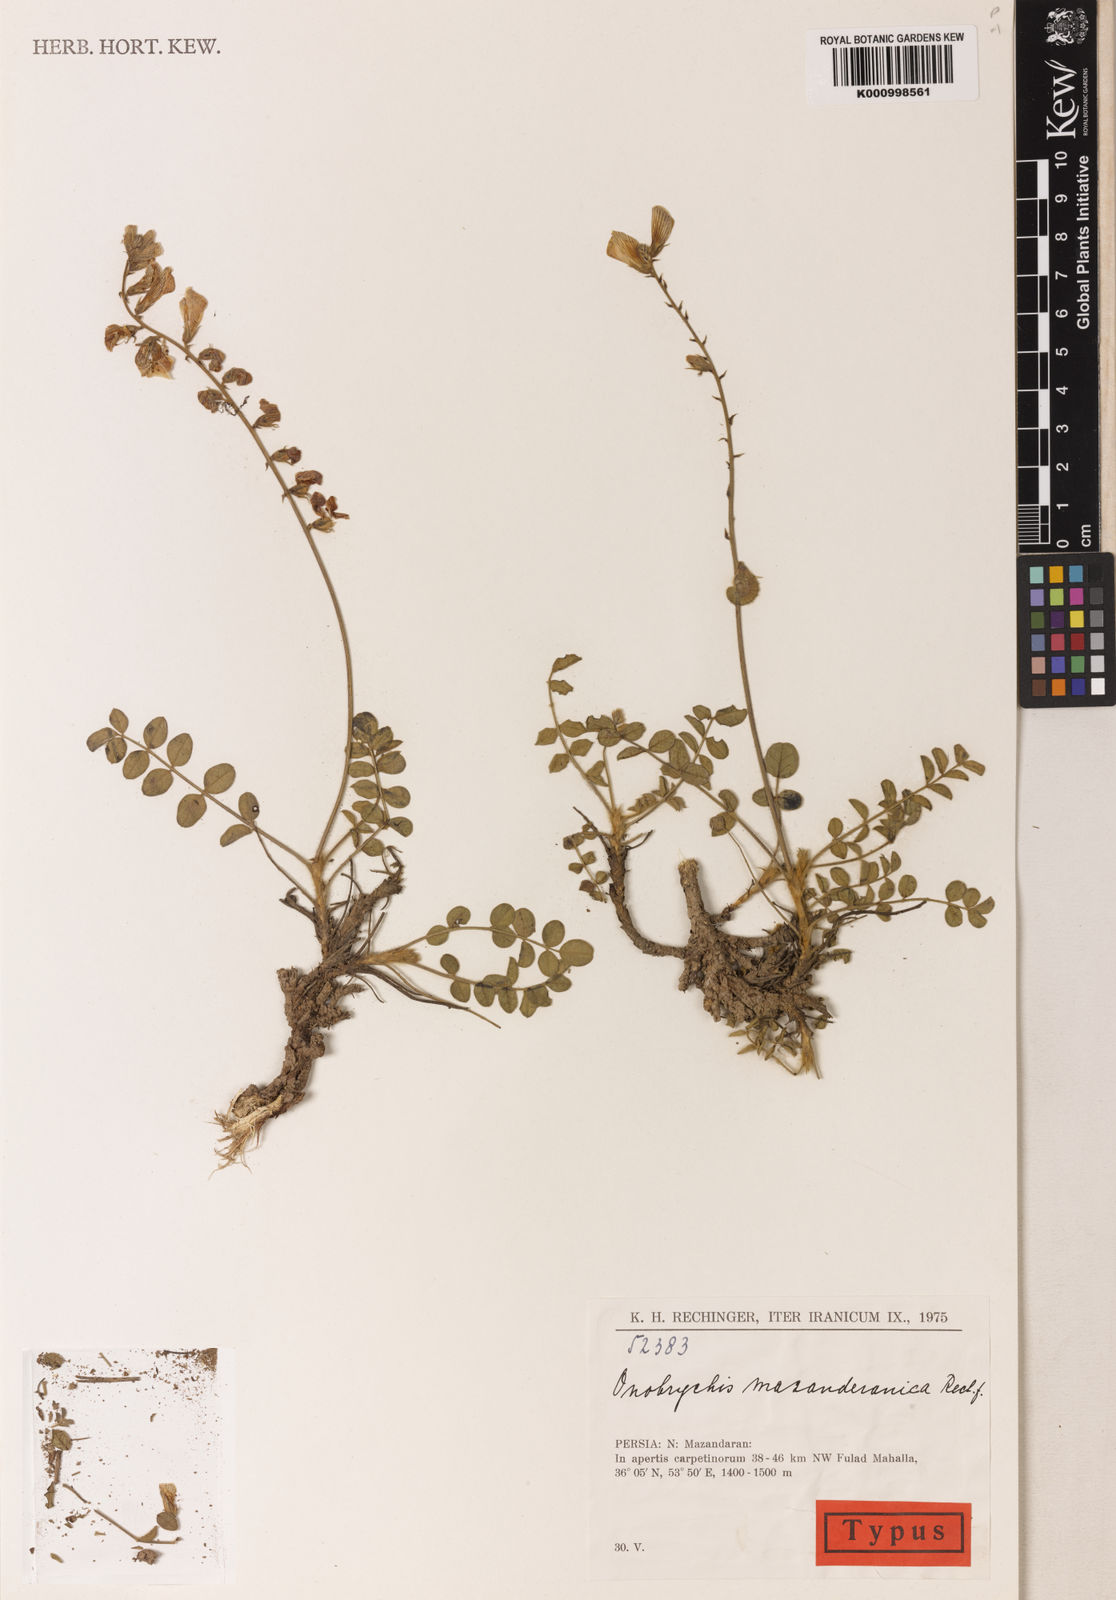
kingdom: Plantae
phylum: Tracheophyta
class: Magnoliopsida
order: Fabales
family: Fabaceae
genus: Onobrychis
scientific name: Onobrychis mazanderanica
